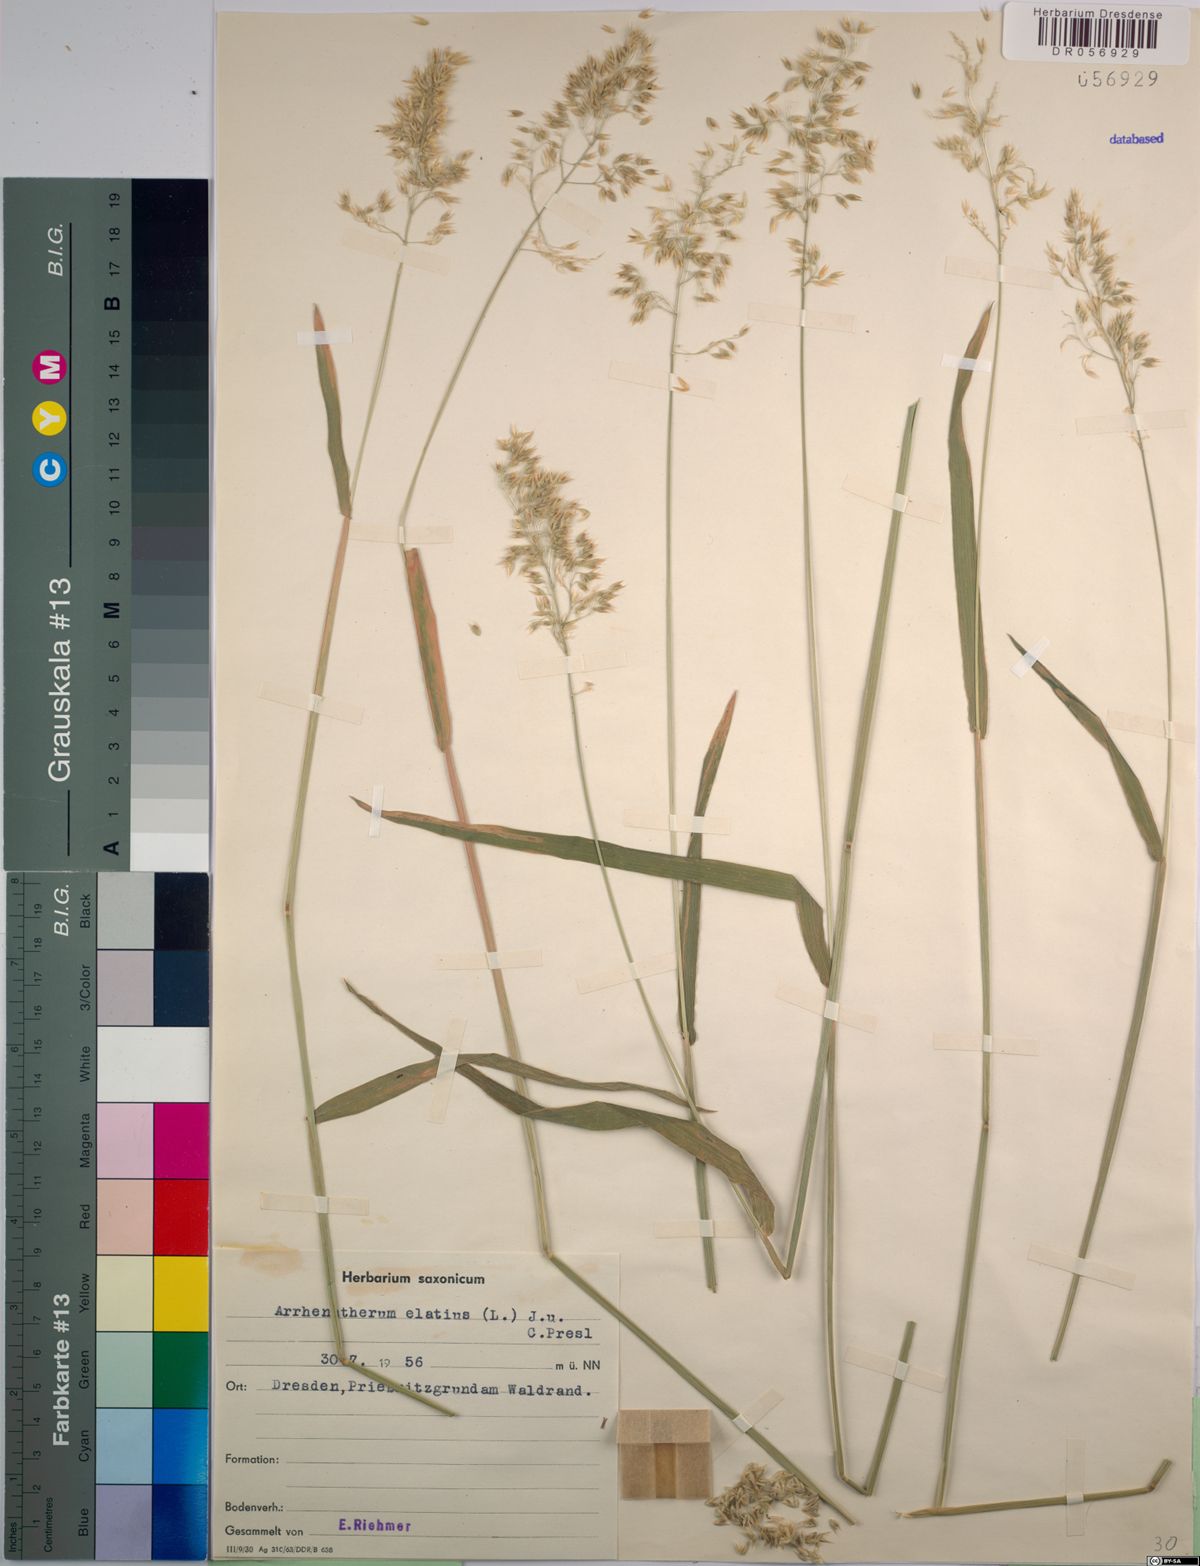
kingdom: Plantae
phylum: Tracheophyta
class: Liliopsida
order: Poales
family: Poaceae
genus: Arrhenatherum
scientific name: Arrhenatherum elatius
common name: Tall oatgrass
